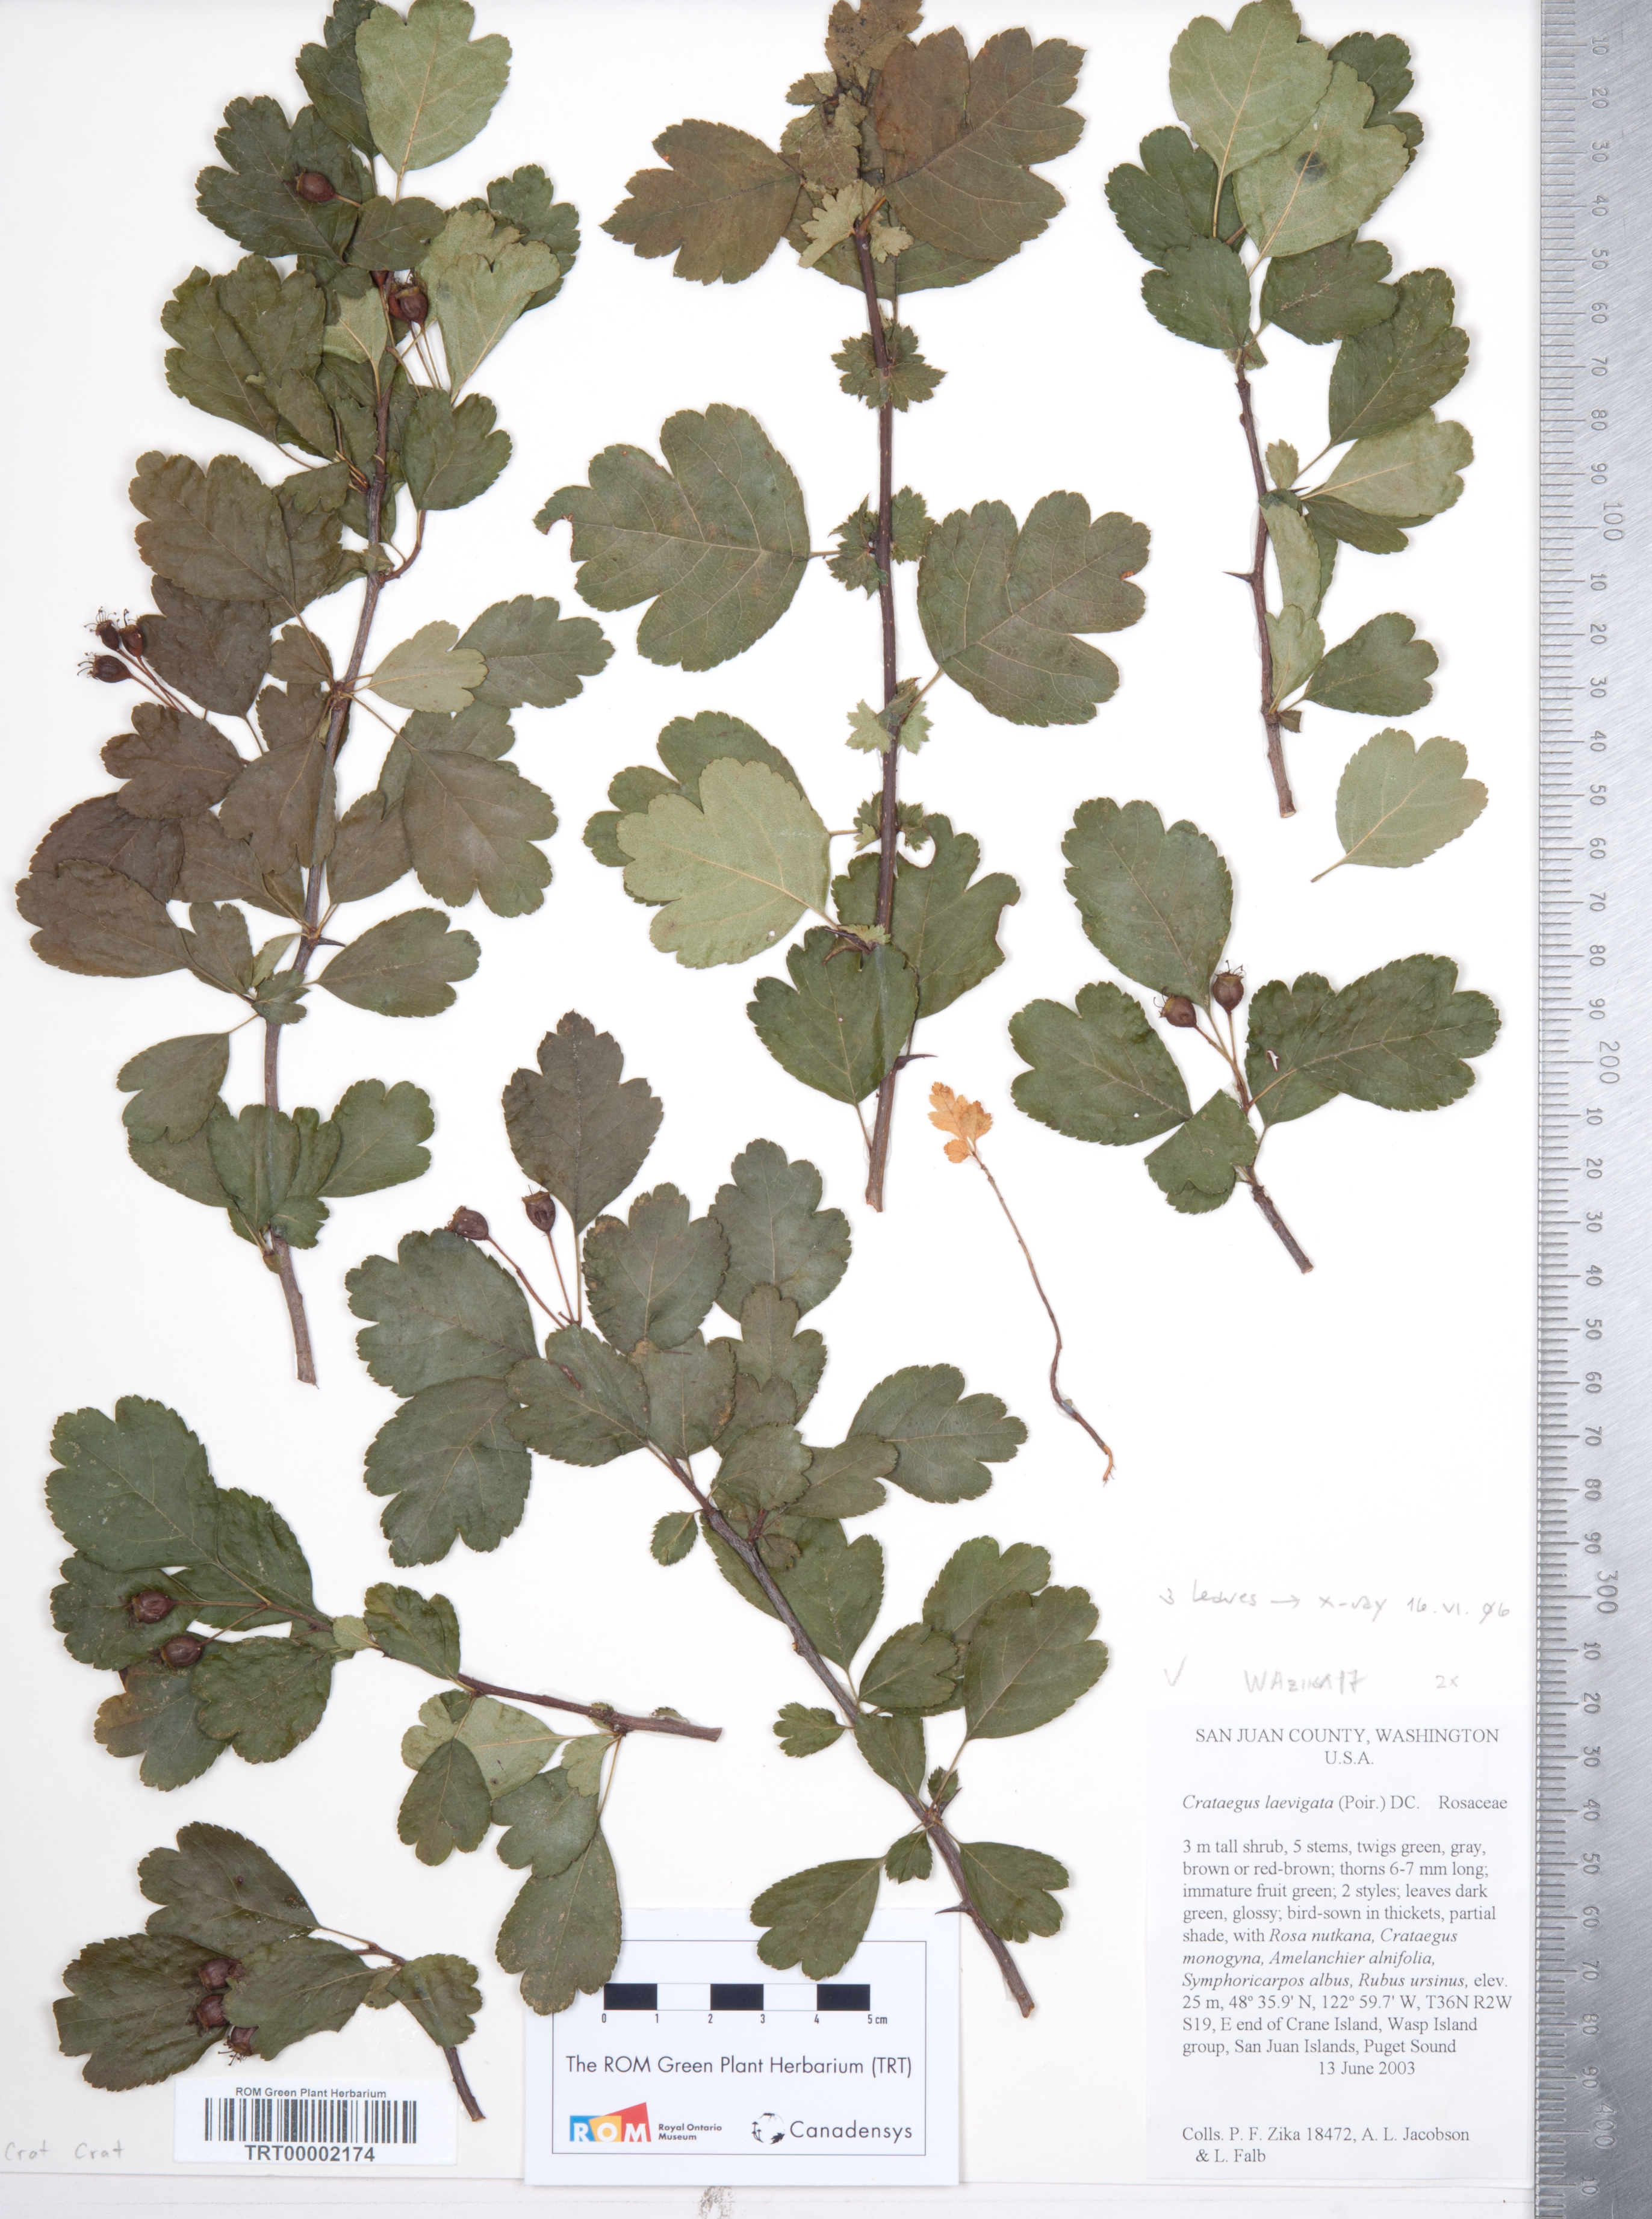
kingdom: Plantae
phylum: Tracheophyta
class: Magnoliopsida
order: Rosales
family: Rosaceae
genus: Crataegus
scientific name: Crataegus laevigata
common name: Midland hawthorn
